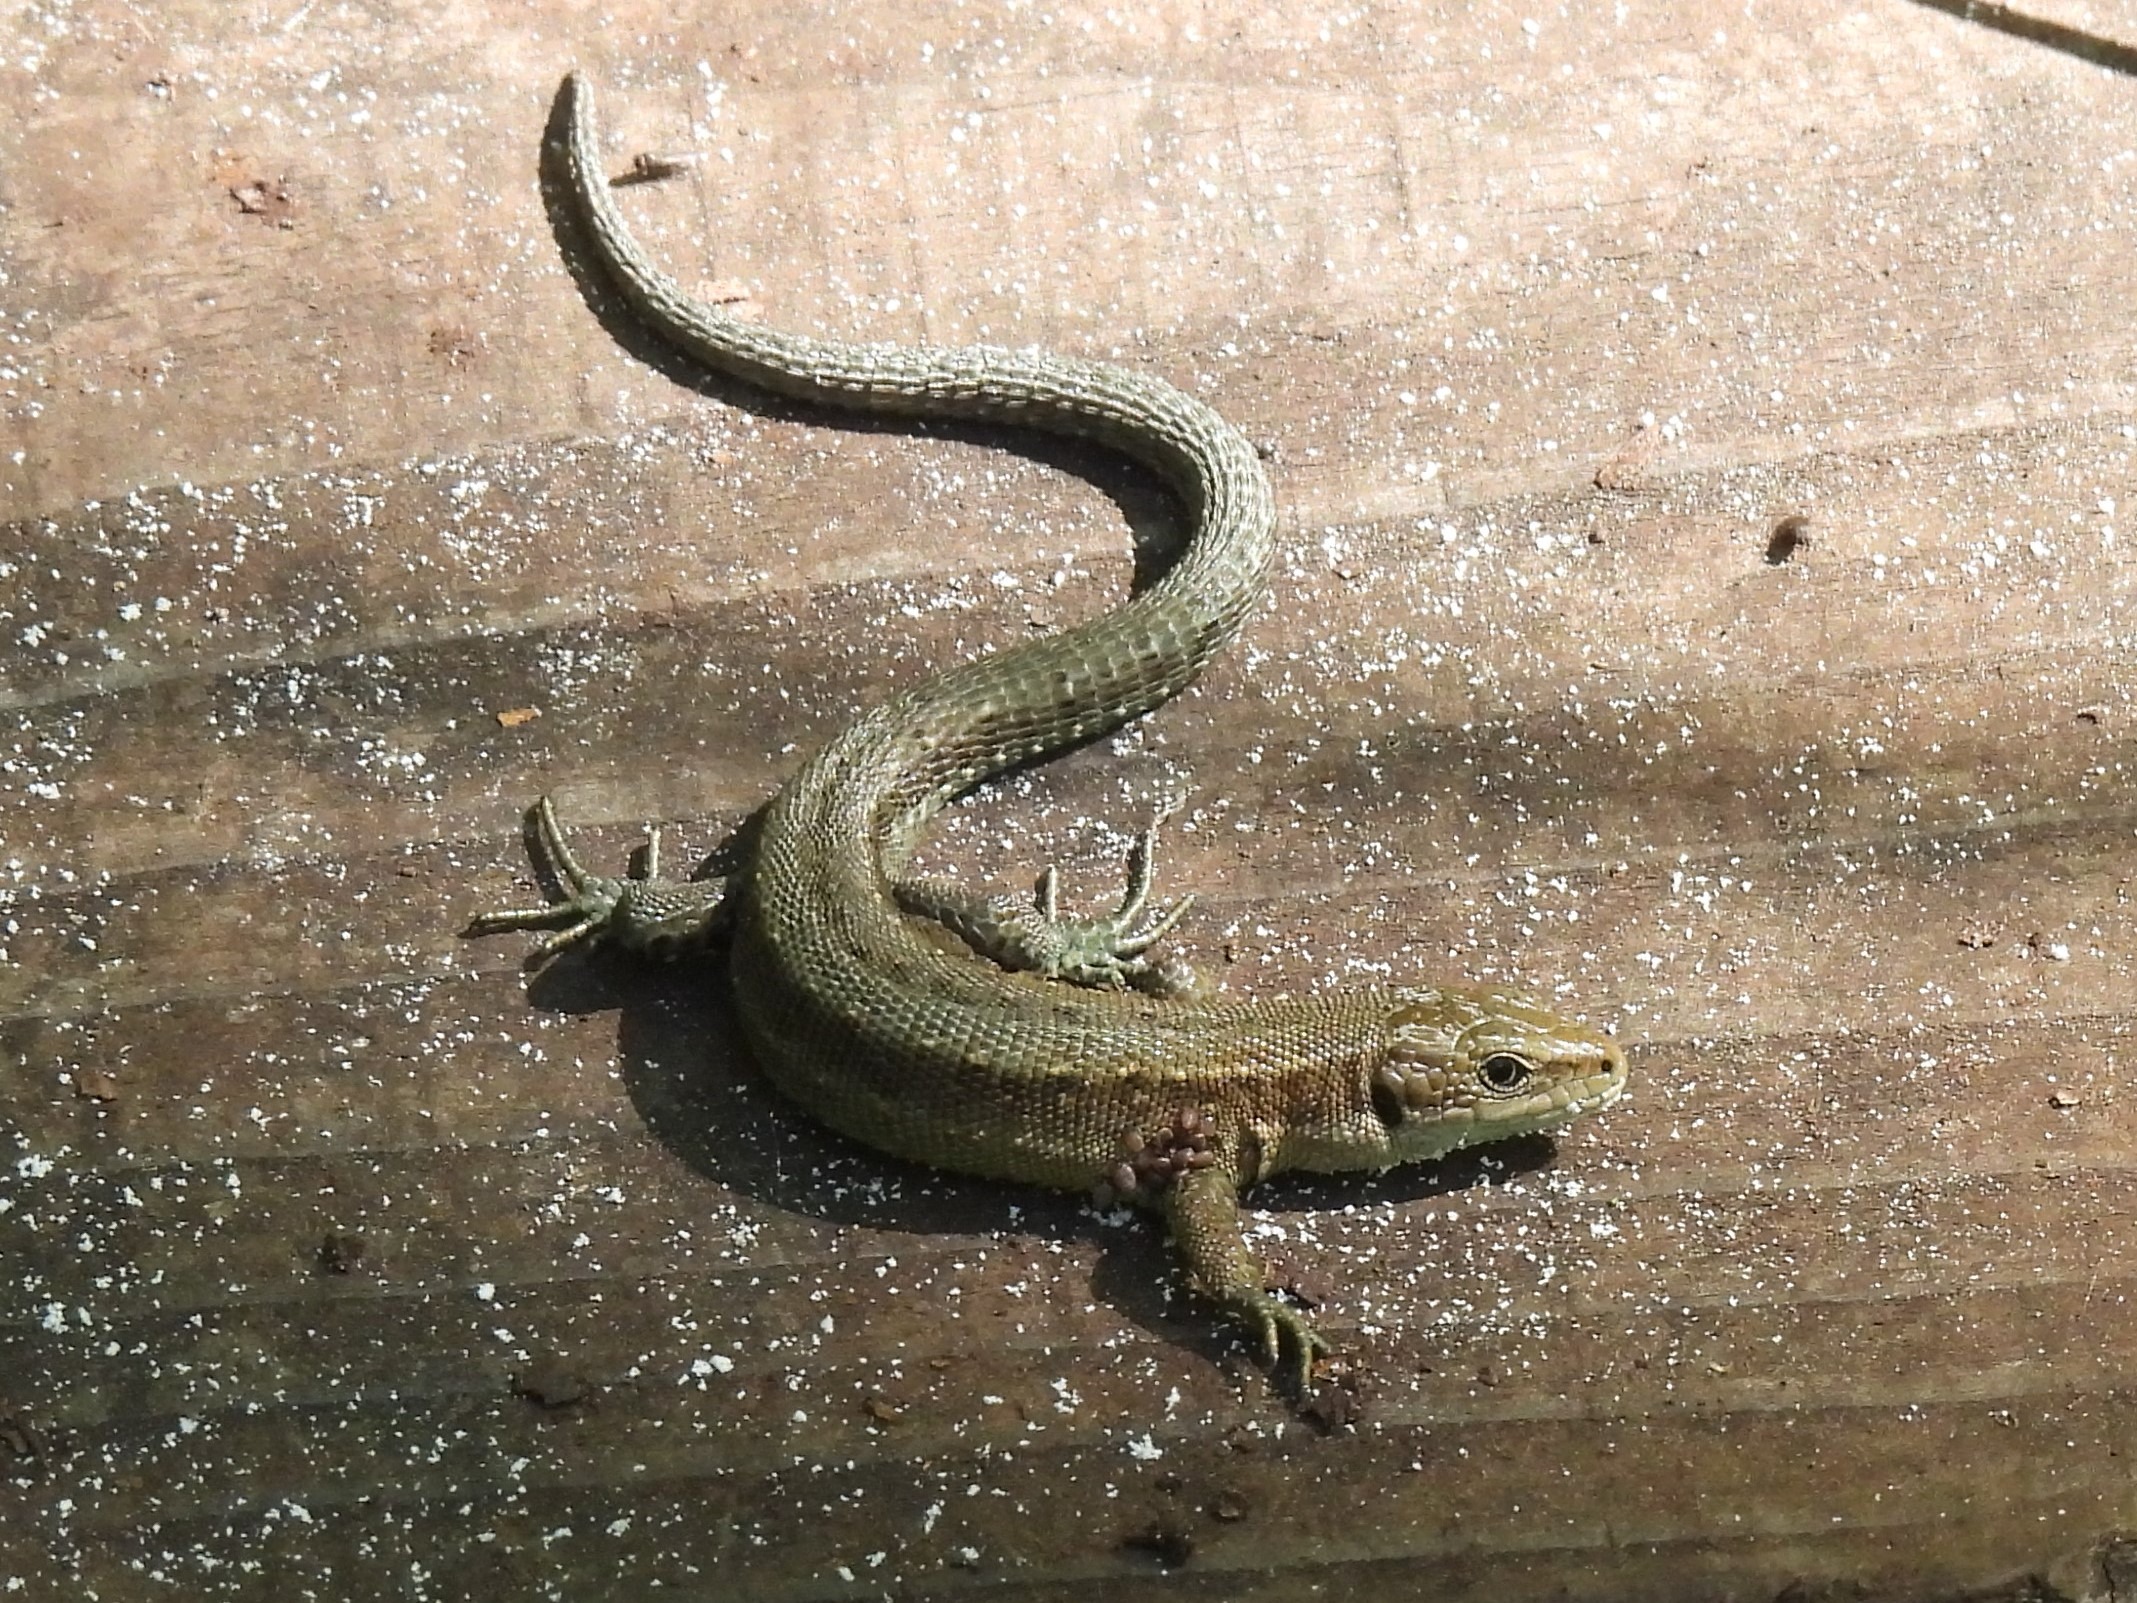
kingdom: Animalia
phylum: Chordata
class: Squamata
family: Lacertidae
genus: Zootoca
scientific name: Zootoca vivipara
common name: Skovfirben
